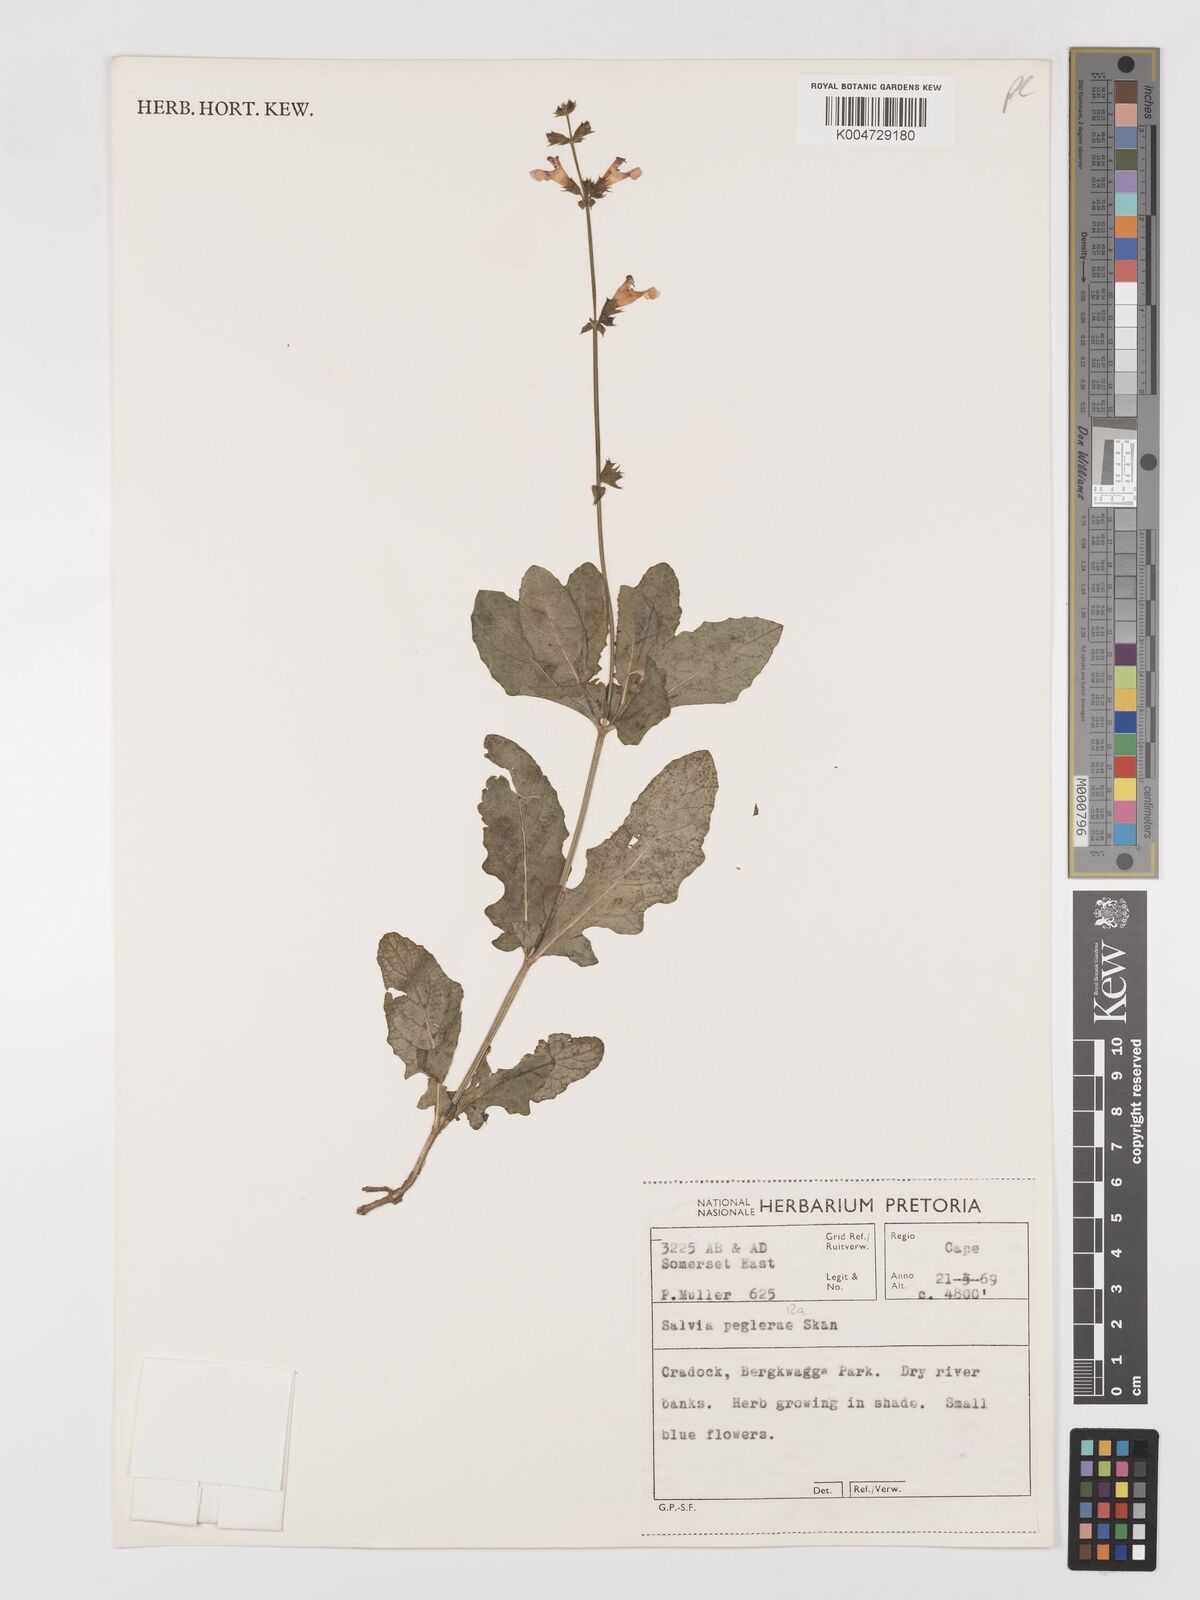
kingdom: Plantae
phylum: Tracheophyta
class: Magnoliopsida
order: Lamiales
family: Lamiaceae
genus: Salvia
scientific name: Salvia aurita
